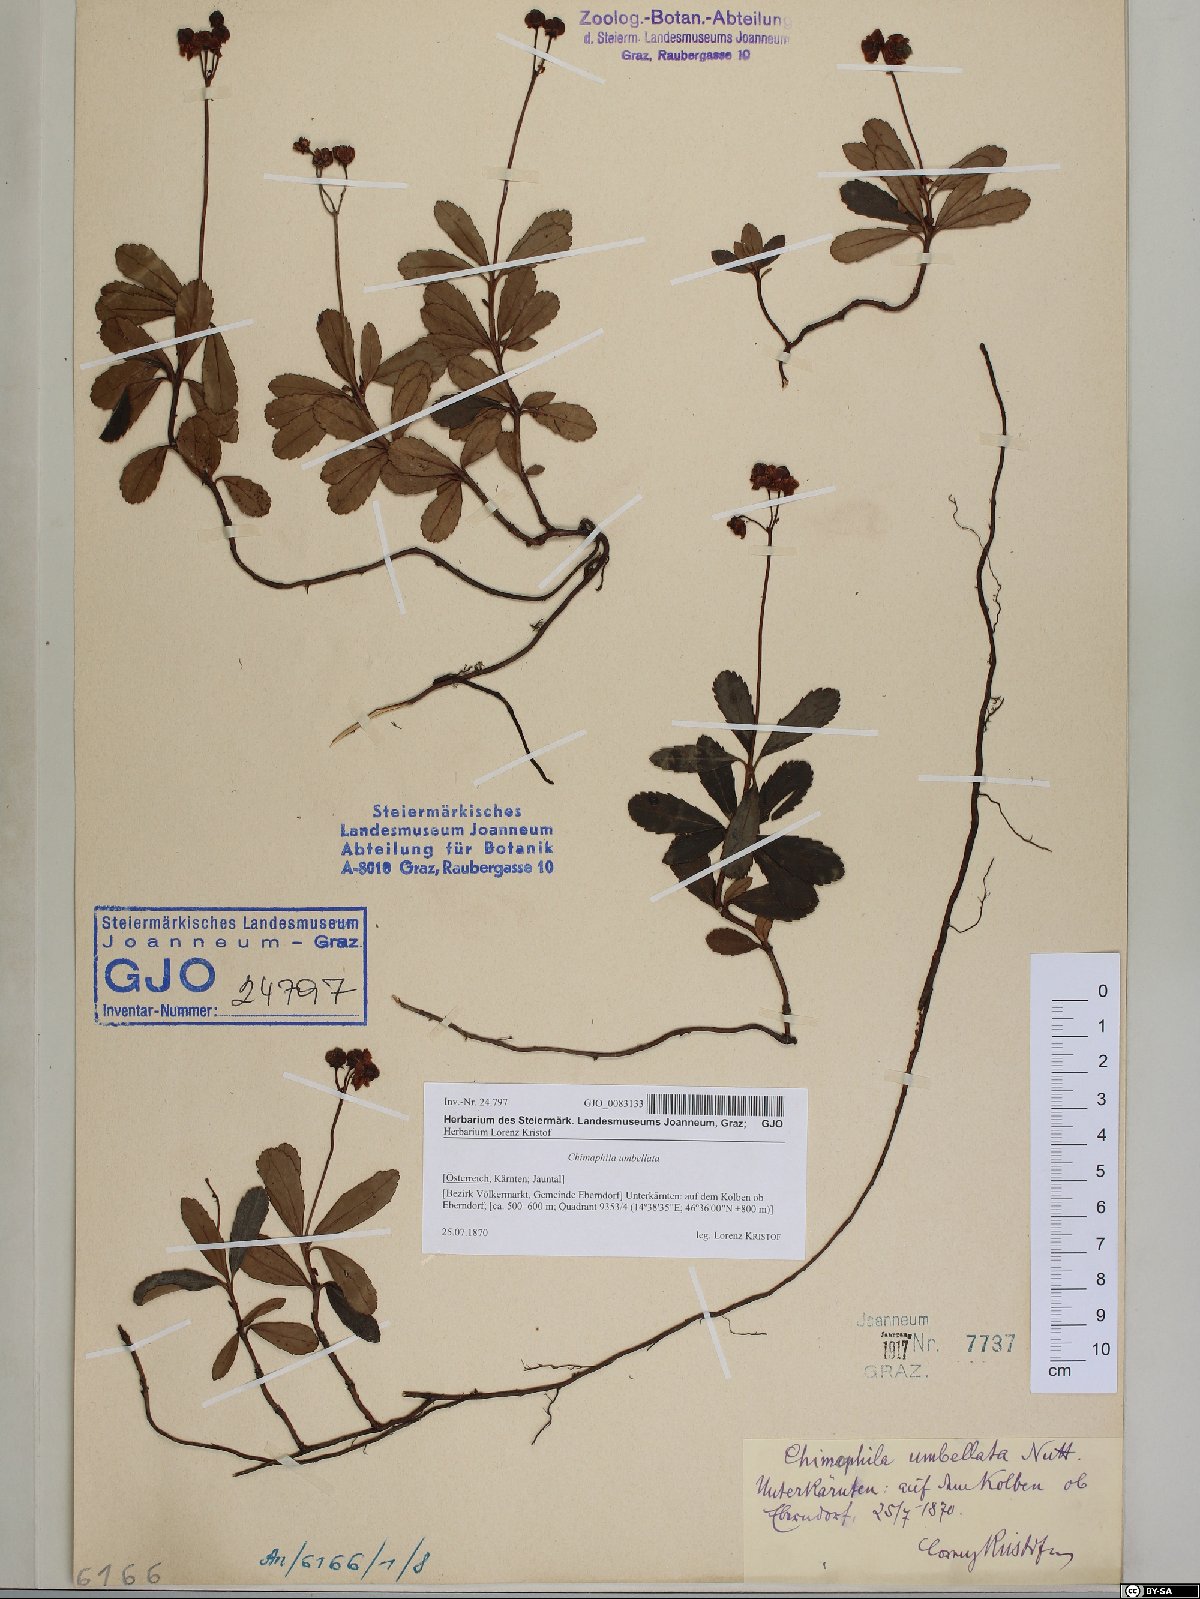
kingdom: Plantae
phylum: Tracheophyta
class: Magnoliopsida
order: Ericales
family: Ericaceae
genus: Chimaphila
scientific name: Chimaphila umbellata
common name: Pipsissewa
